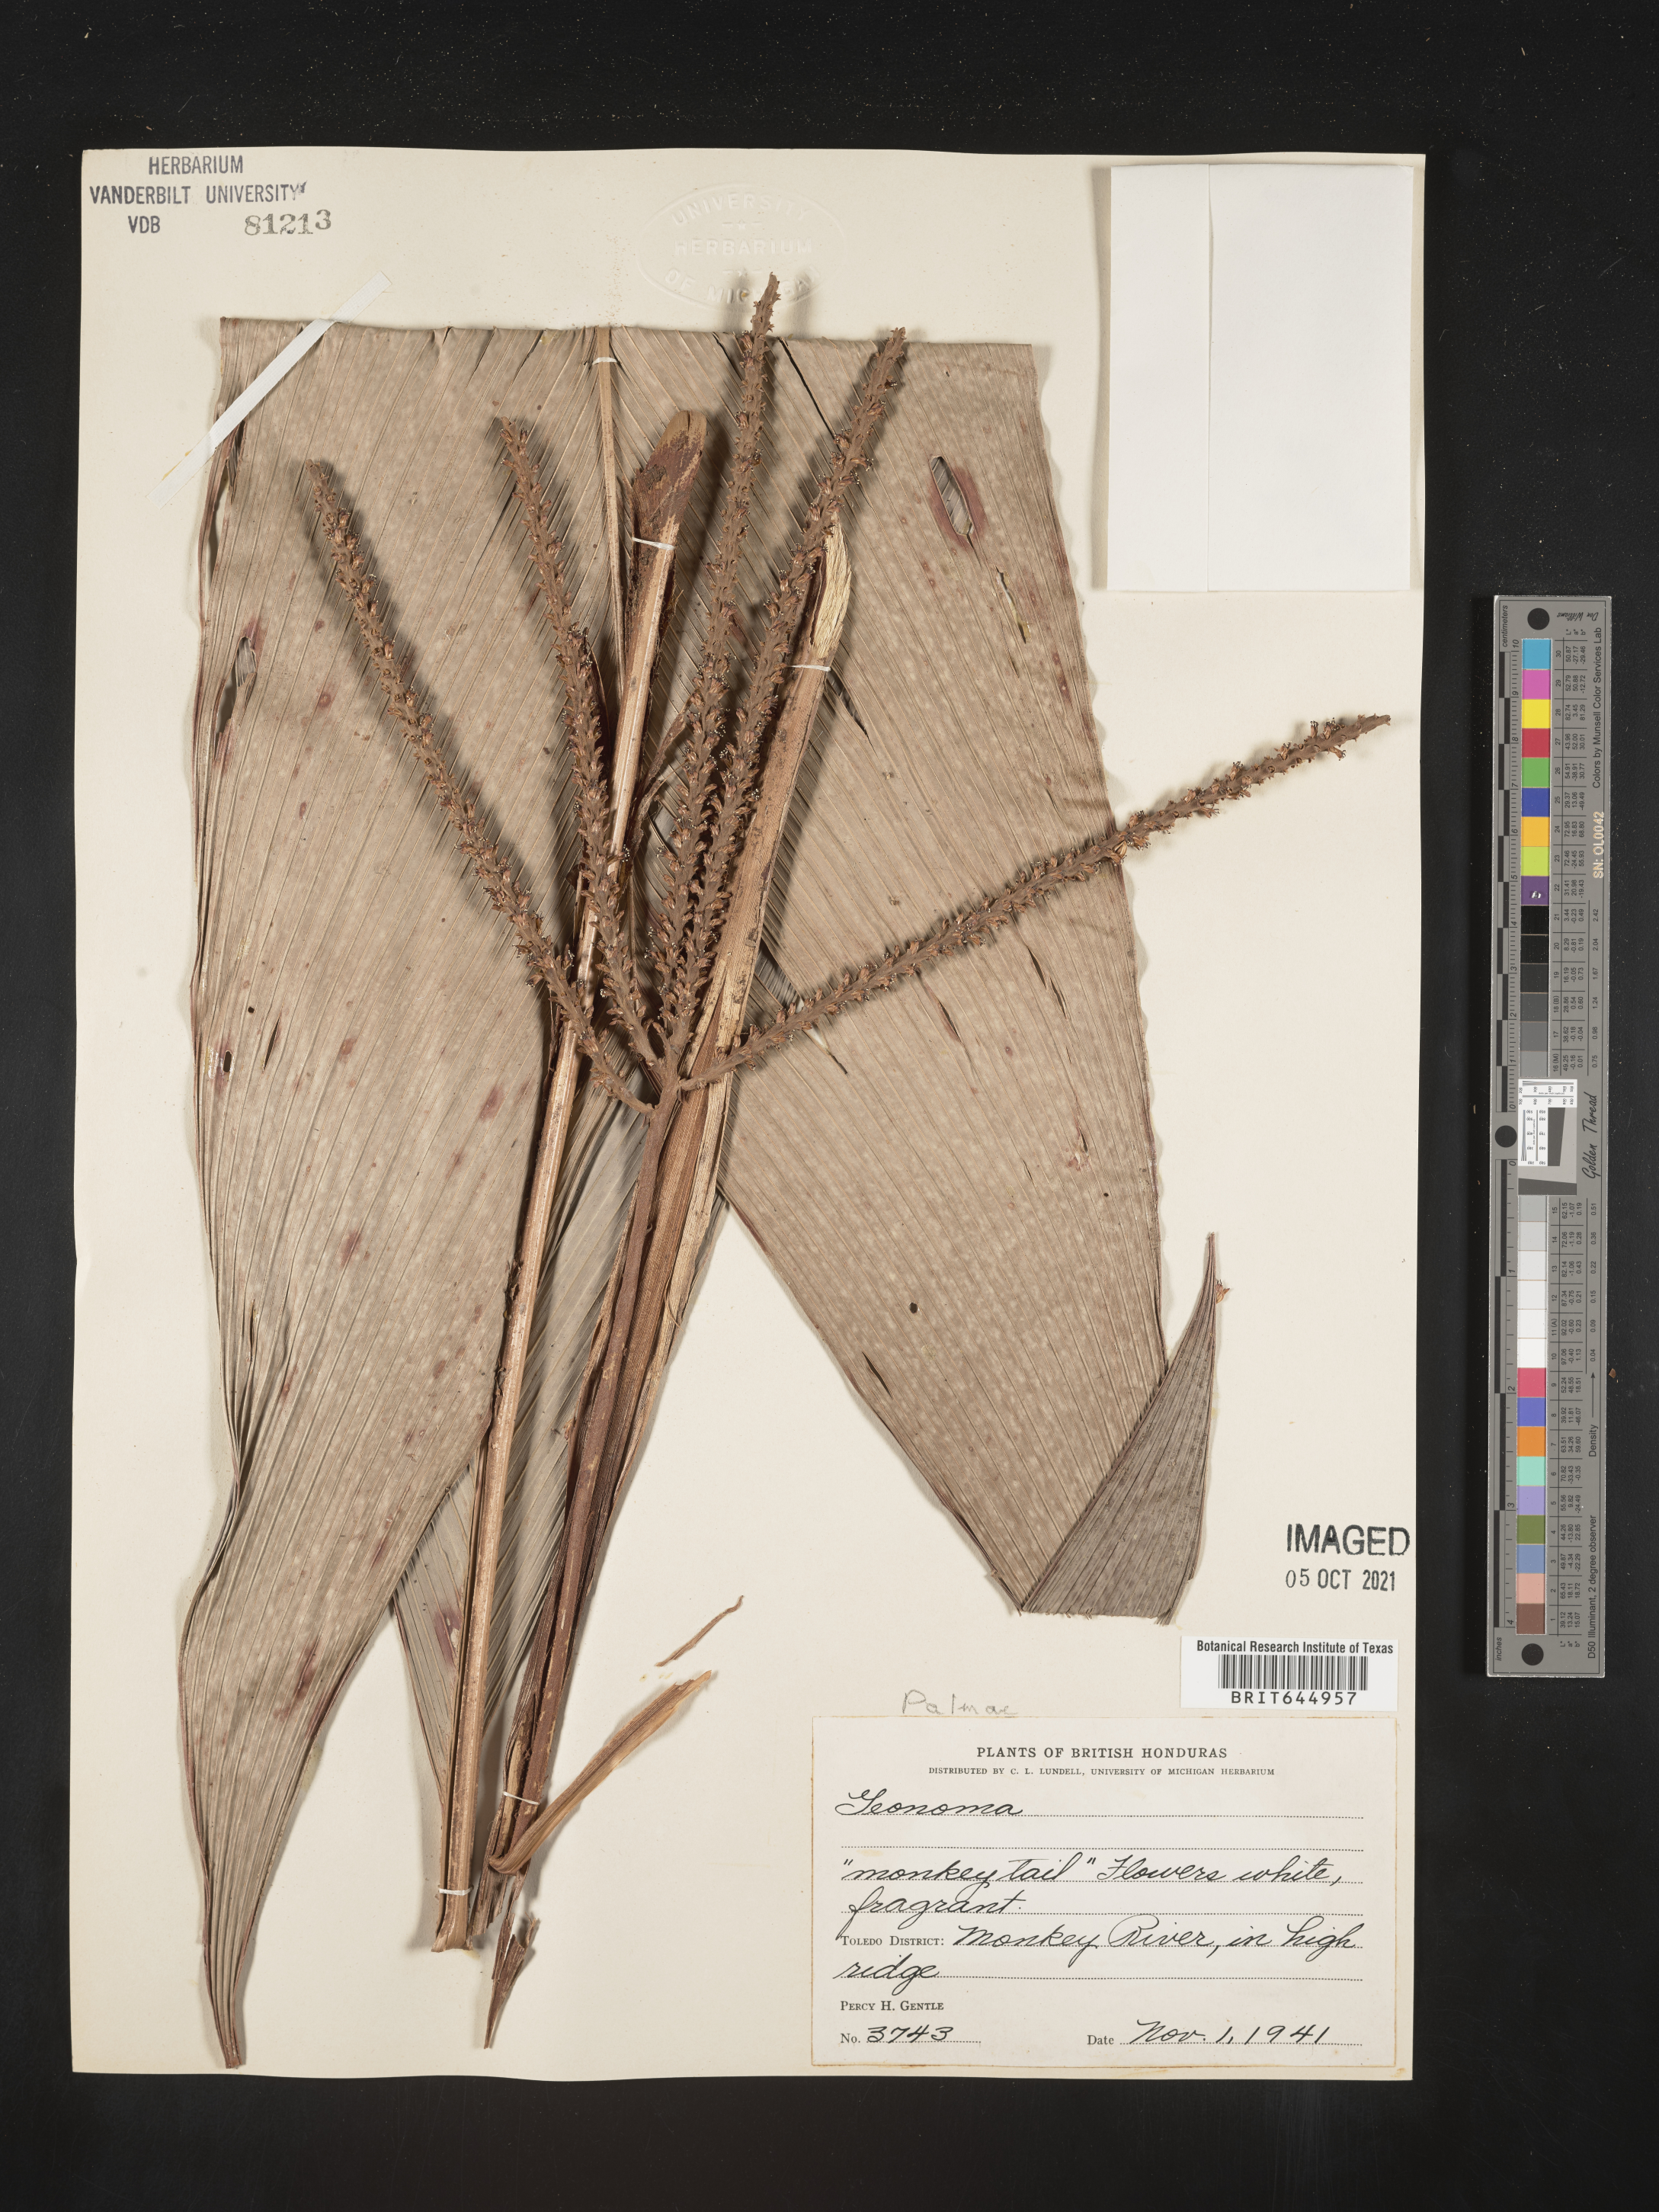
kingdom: Plantae
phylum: Tracheophyta
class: Liliopsida
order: Arecales
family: Arecaceae
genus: Geonoma
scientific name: Geonoma
